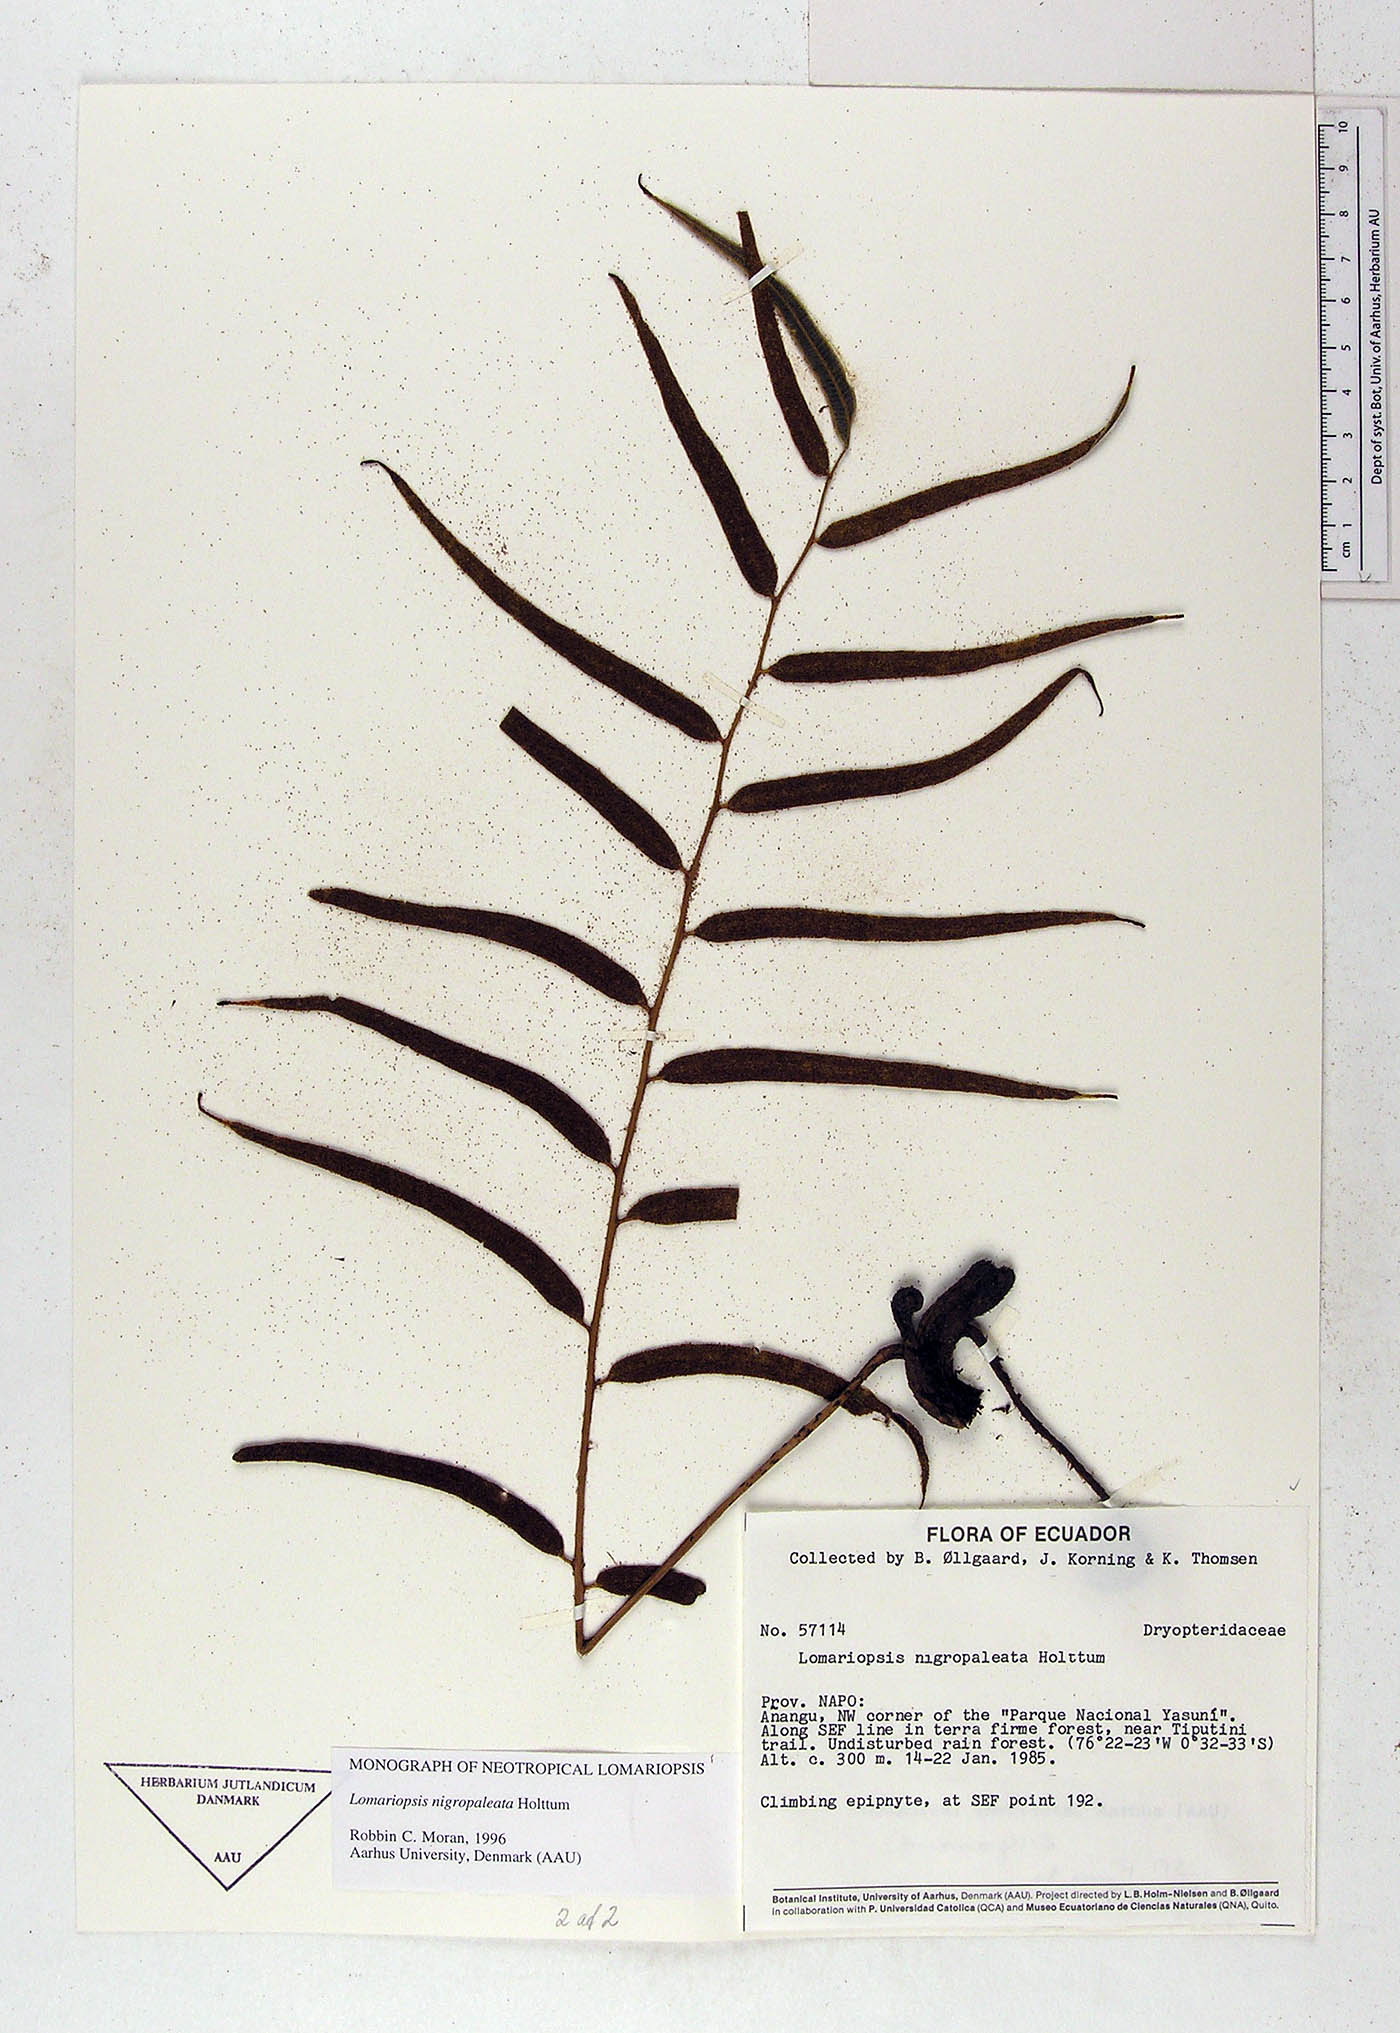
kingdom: Plantae
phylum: Tracheophyta
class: Polypodiopsida
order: Polypodiales
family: Lomariopsidaceae
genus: Lomariopsis
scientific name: Lomariopsis nigropaleata
